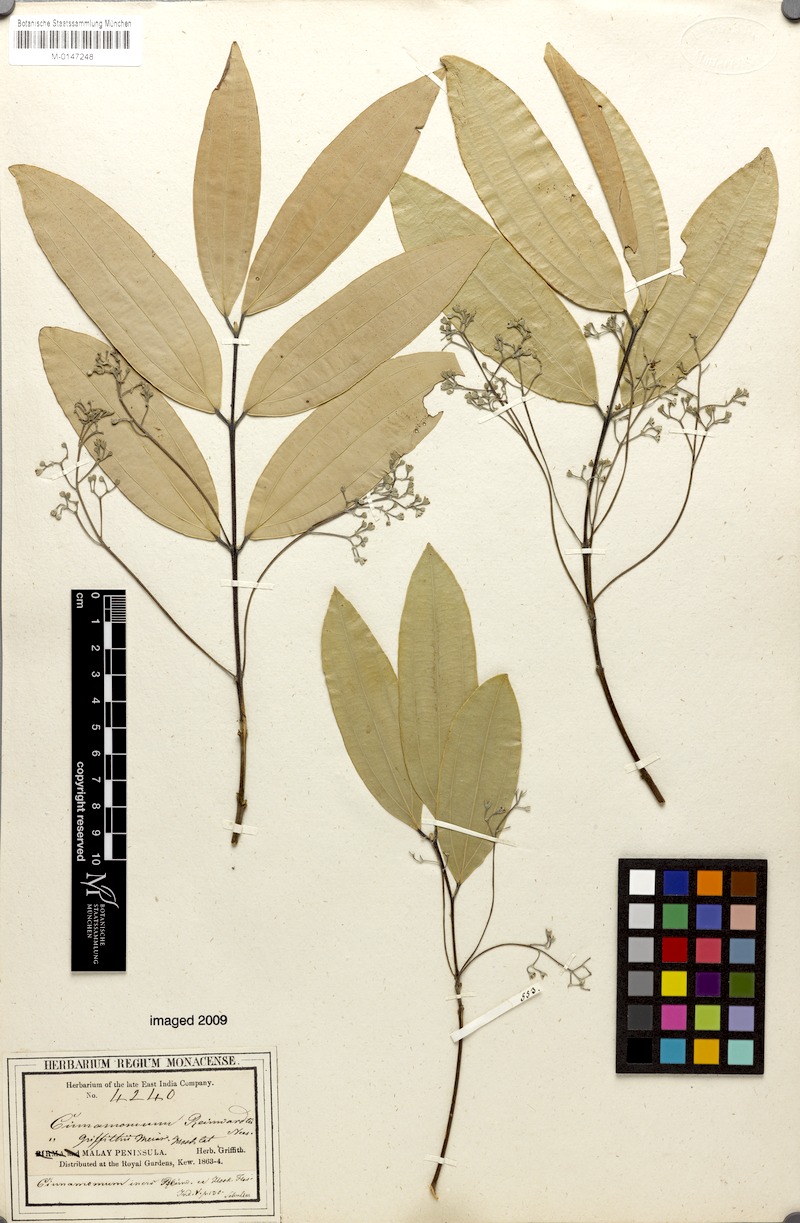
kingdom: Plantae
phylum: Tracheophyta
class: Magnoliopsida
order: Laurales
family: Lauraceae
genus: Cinnamomum
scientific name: Cinnamomum tamala
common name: Indian bay leaves
